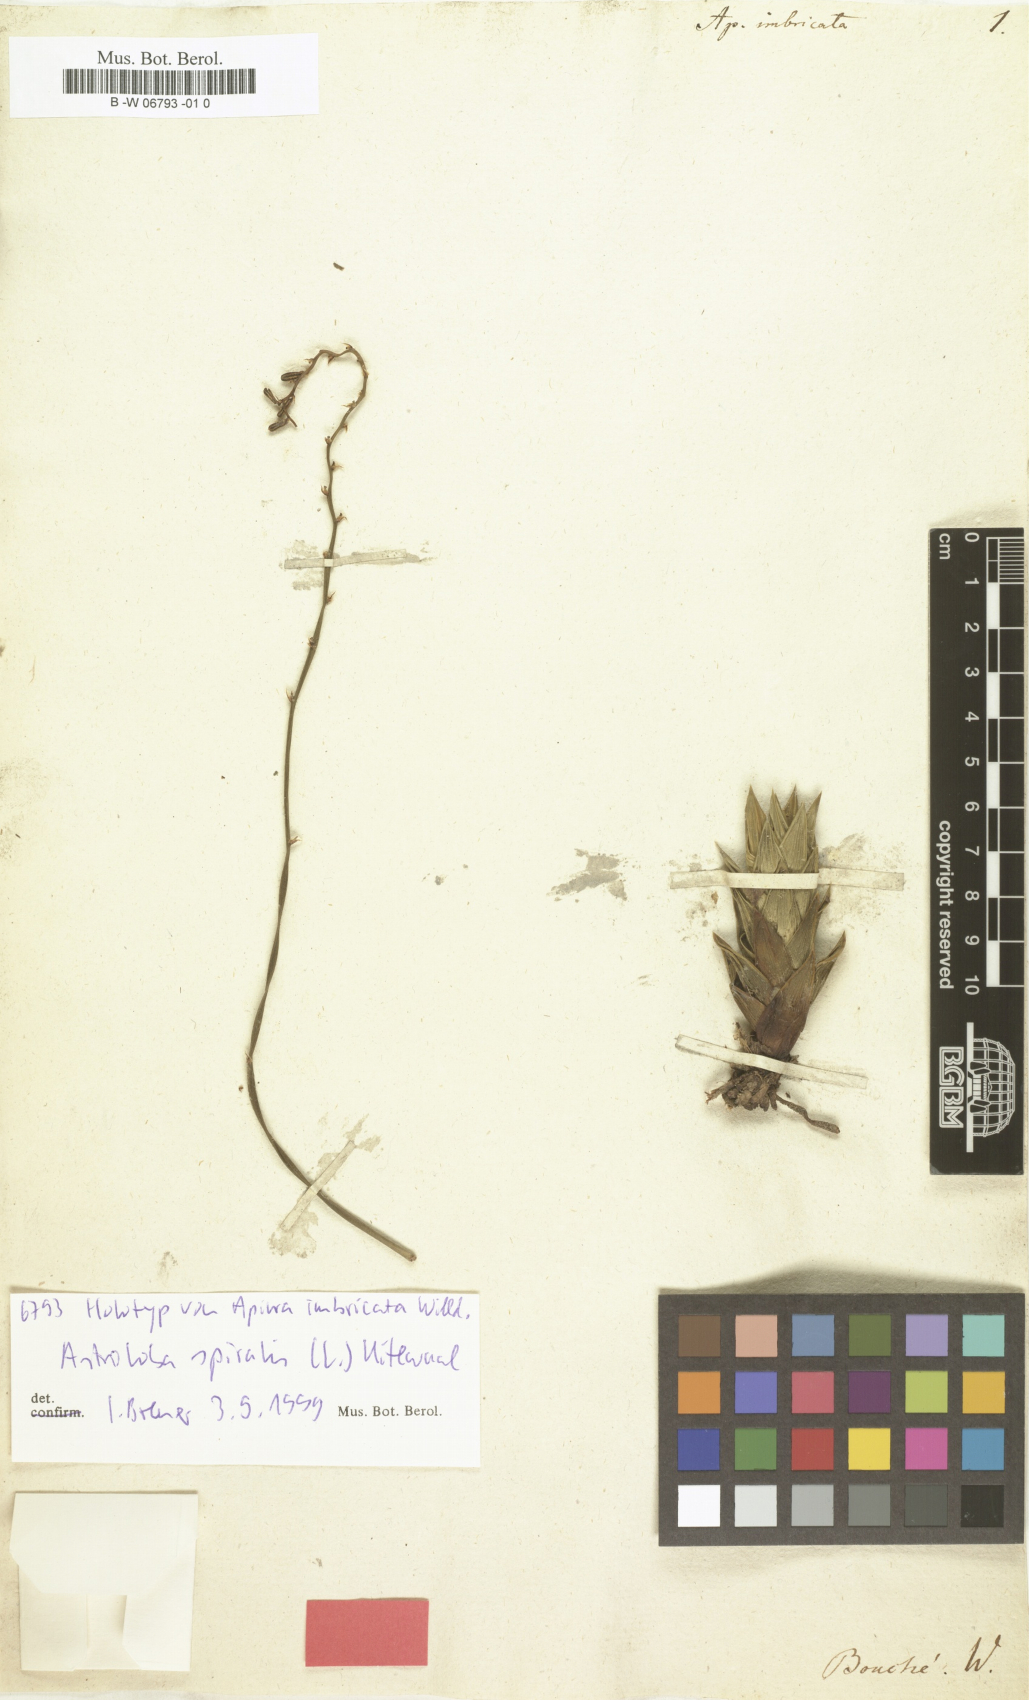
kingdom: Plantae
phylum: Tracheophyta
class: Liliopsida
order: Asparagales
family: Asphodelaceae
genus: Astroloba
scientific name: Astroloba spiralis
